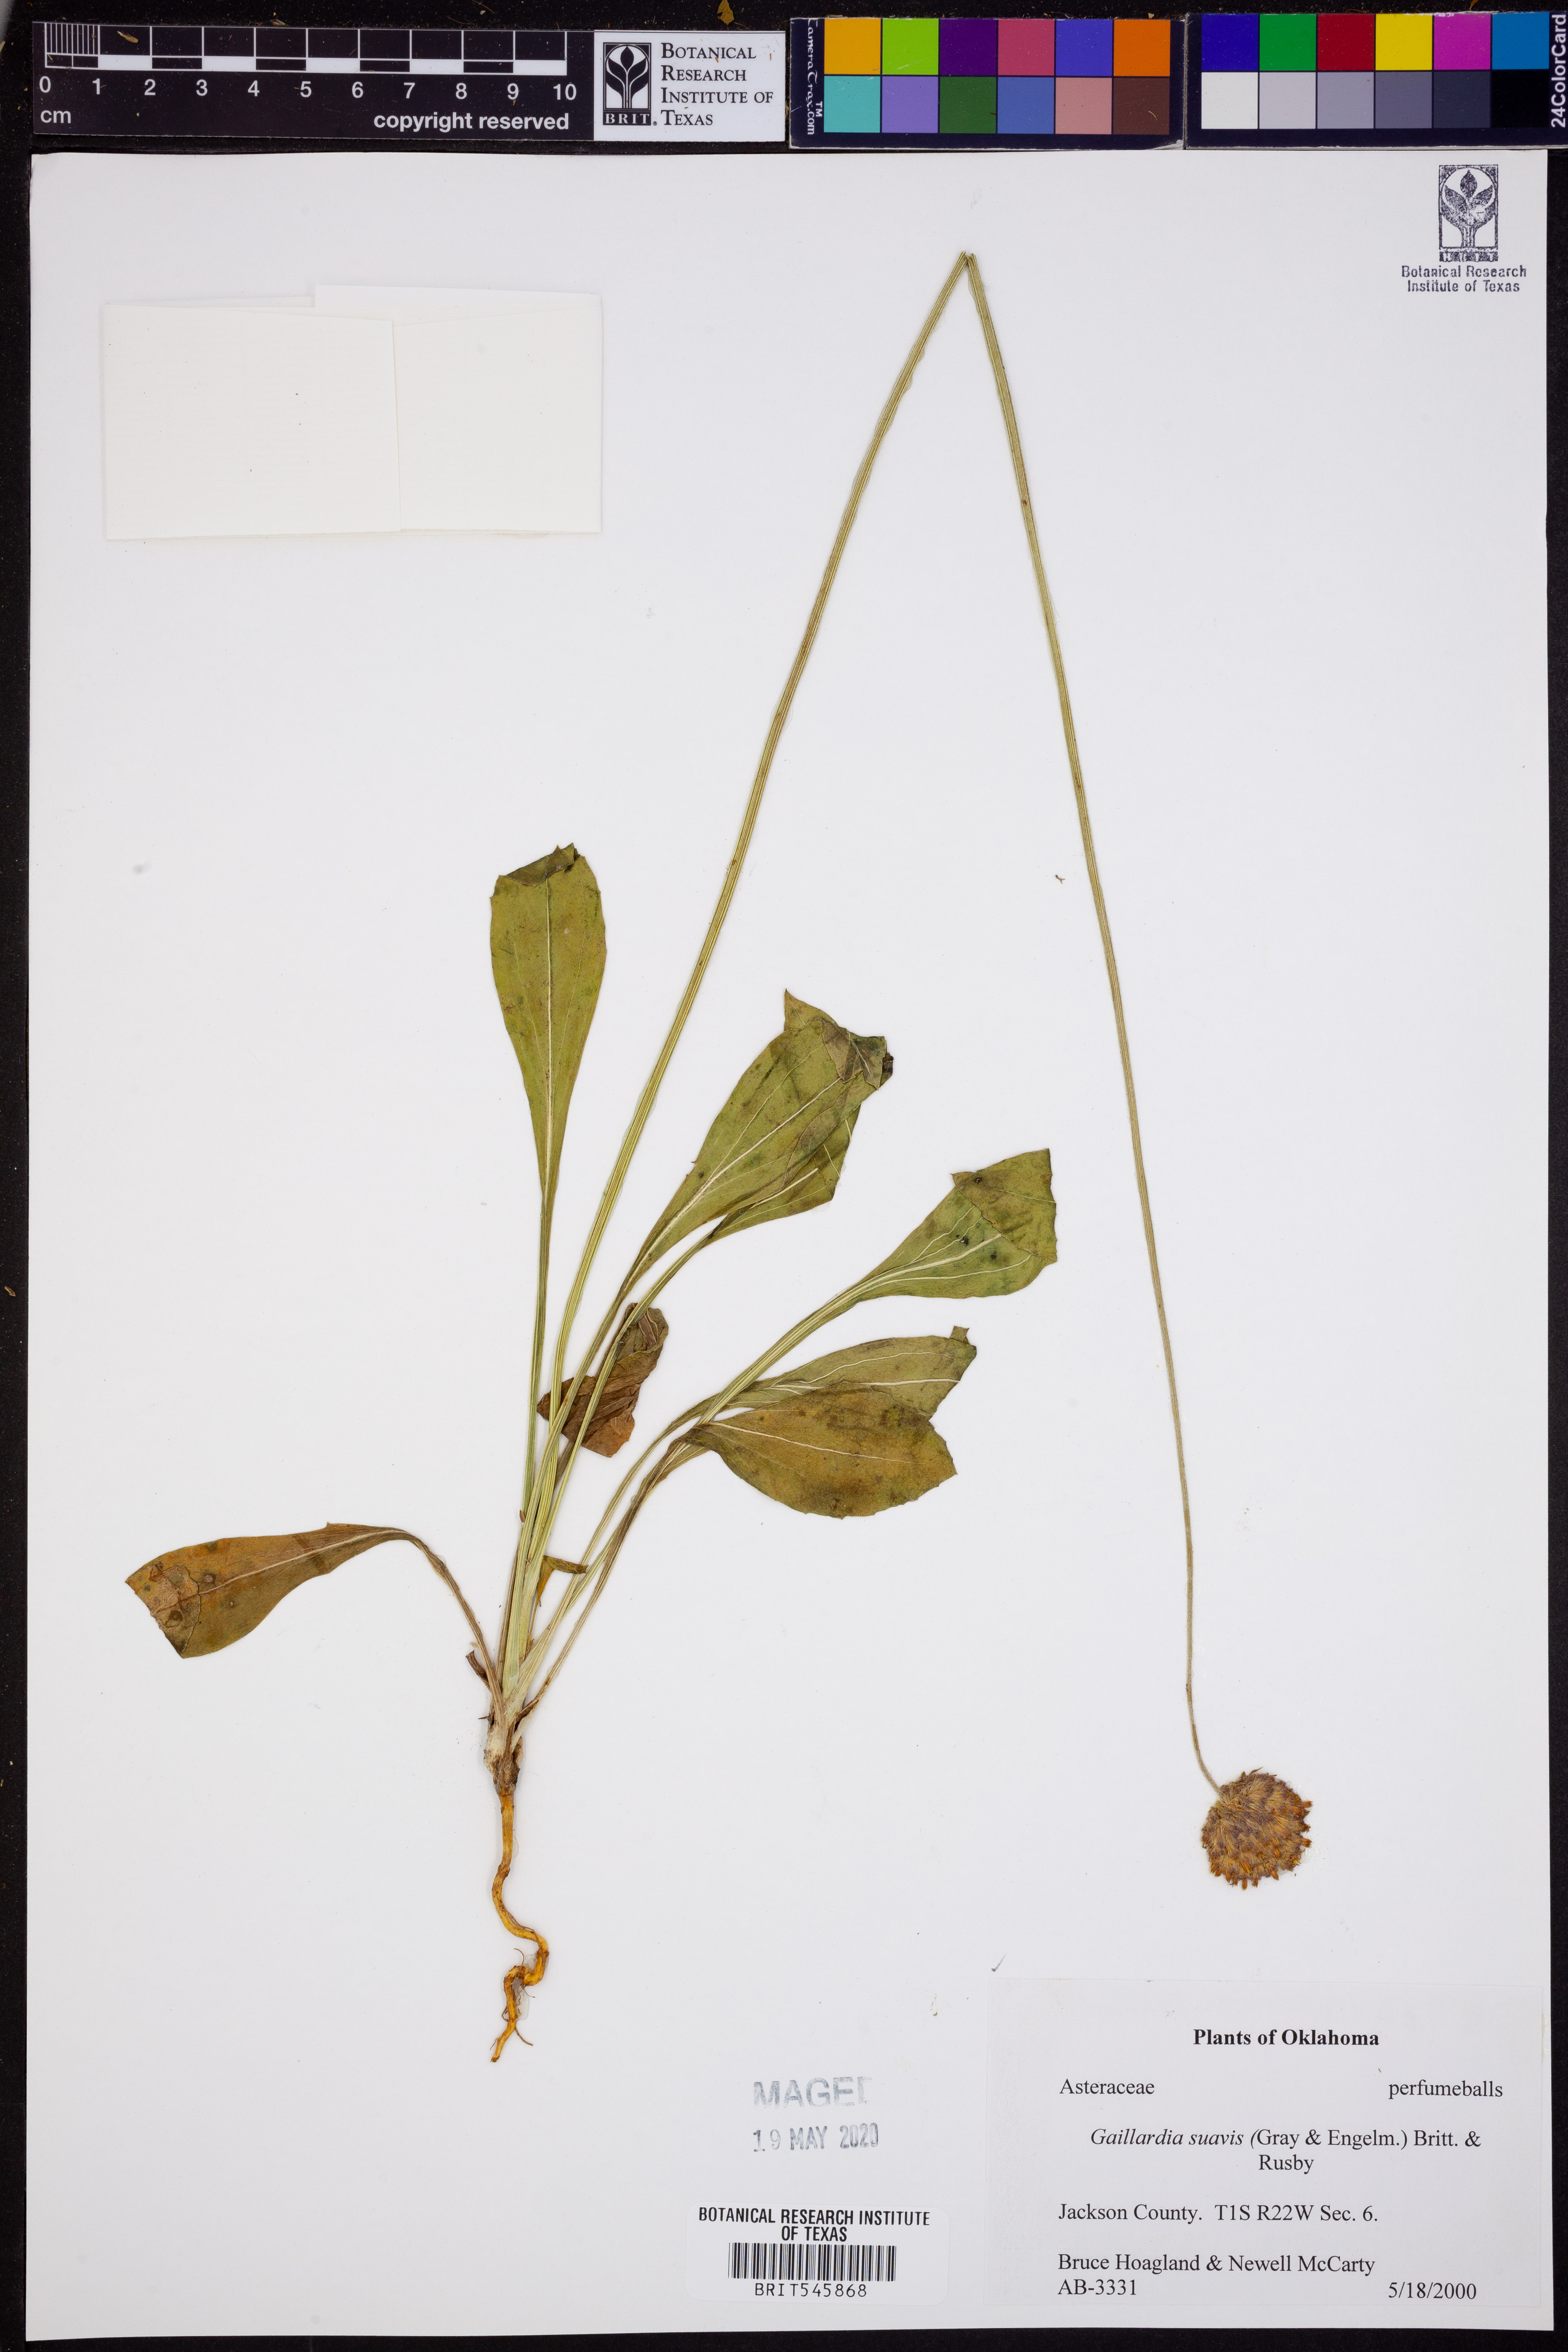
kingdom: Plantae
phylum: Tracheophyta
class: Magnoliopsida
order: Asterales
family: Asteraceae
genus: Gaillardia
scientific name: Gaillardia suavis
